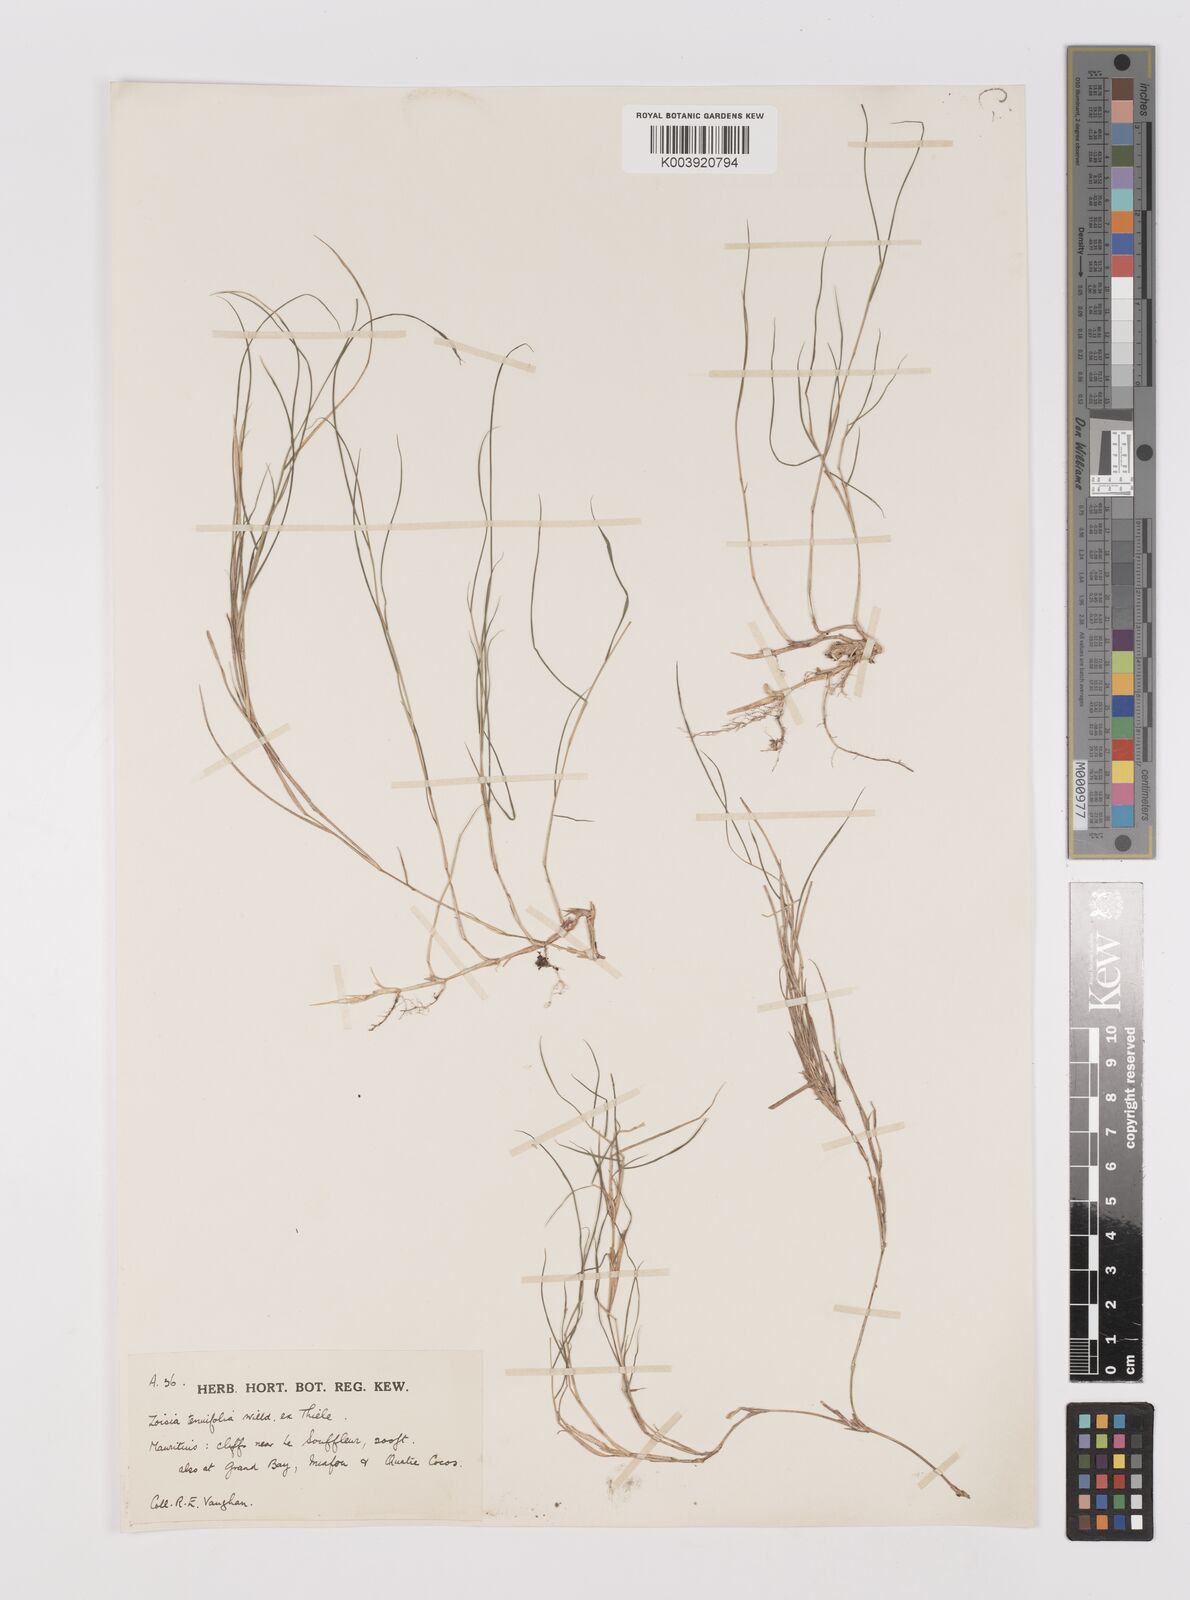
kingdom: Plantae
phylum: Tracheophyta
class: Liliopsida
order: Poales
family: Poaceae
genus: Zoysia
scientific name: Zoysia matrella
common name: Manila grass
